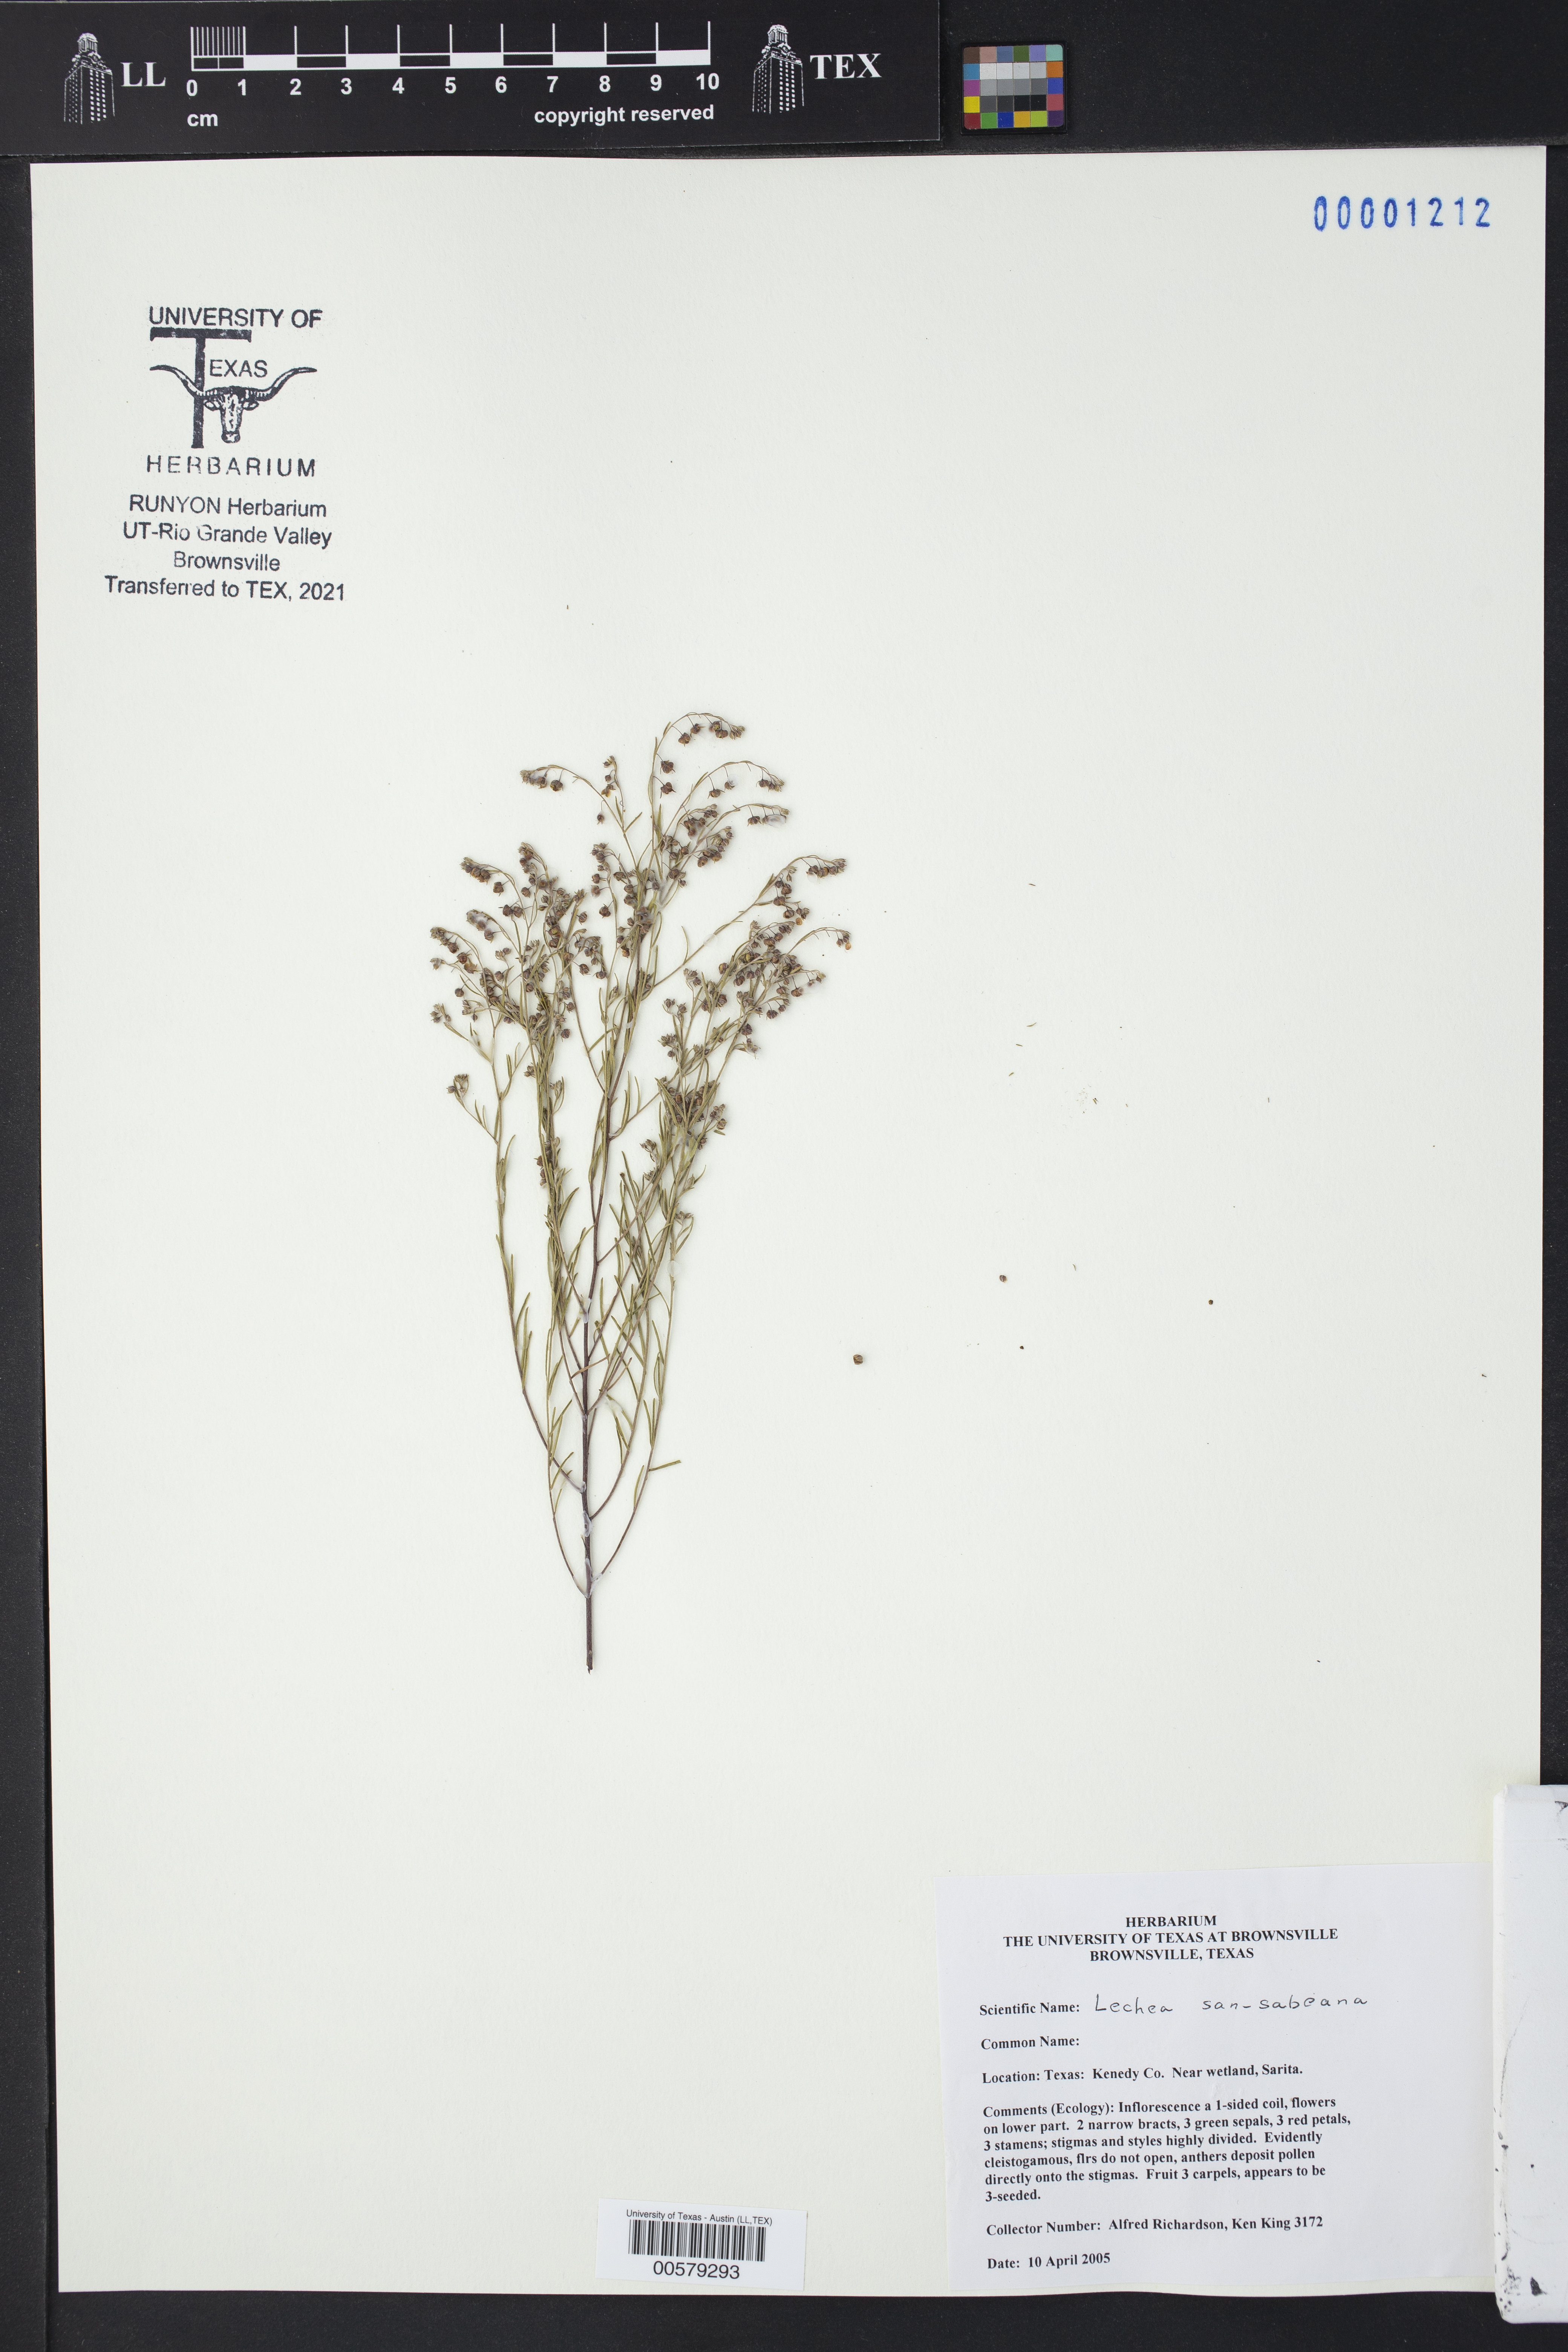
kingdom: Plantae
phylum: Tracheophyta
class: Magnoliopsida
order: Malvales
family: Cistaceae
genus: Lechea
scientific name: Lechea san-sabeana
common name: San saba pinweed
